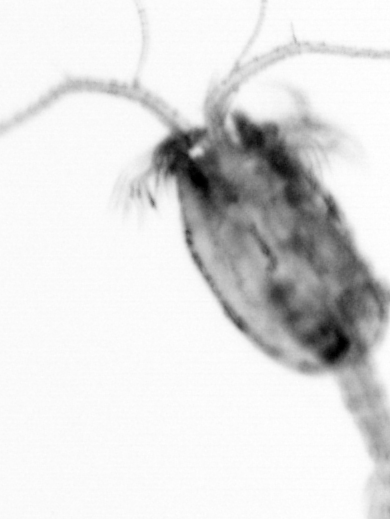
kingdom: Animalia
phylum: Arthropoda
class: Copepoda
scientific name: Copepoda
